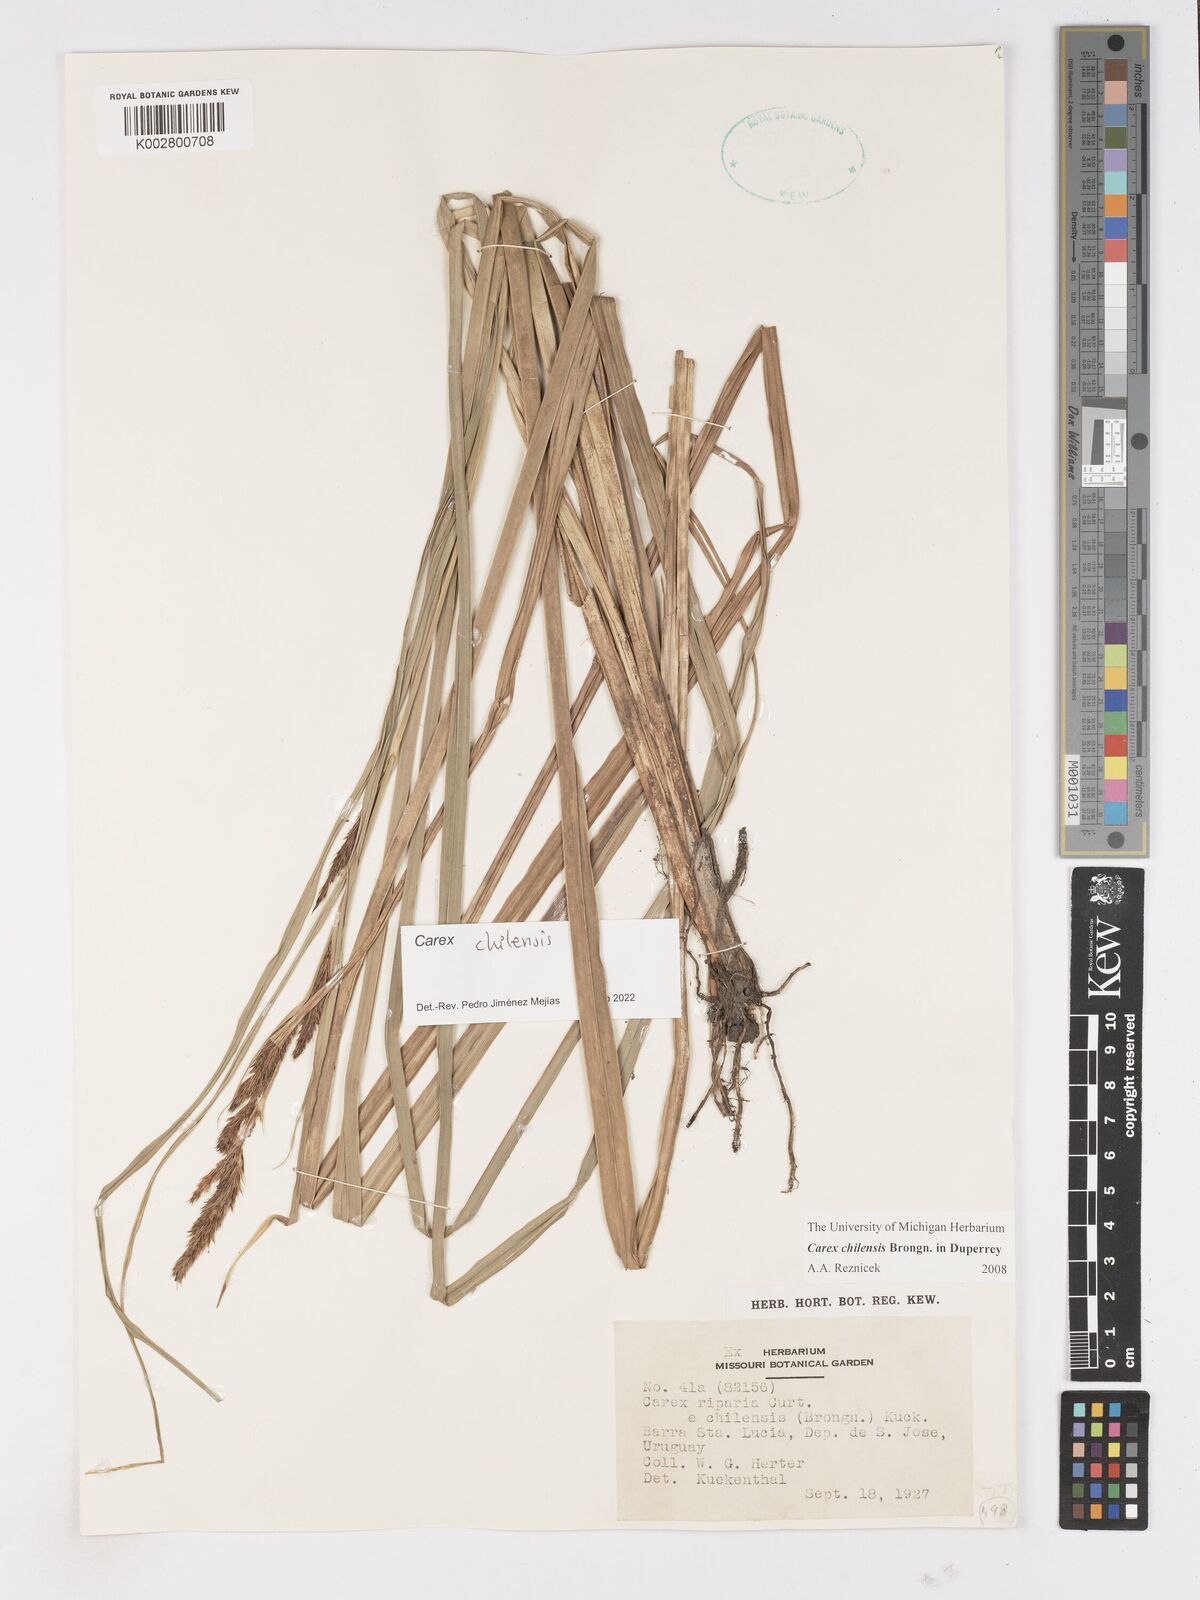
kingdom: Plantae
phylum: Tracheophyta
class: Liliopsida
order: Poales
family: Cyperaceae
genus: Carex
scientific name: Carex chilensis
